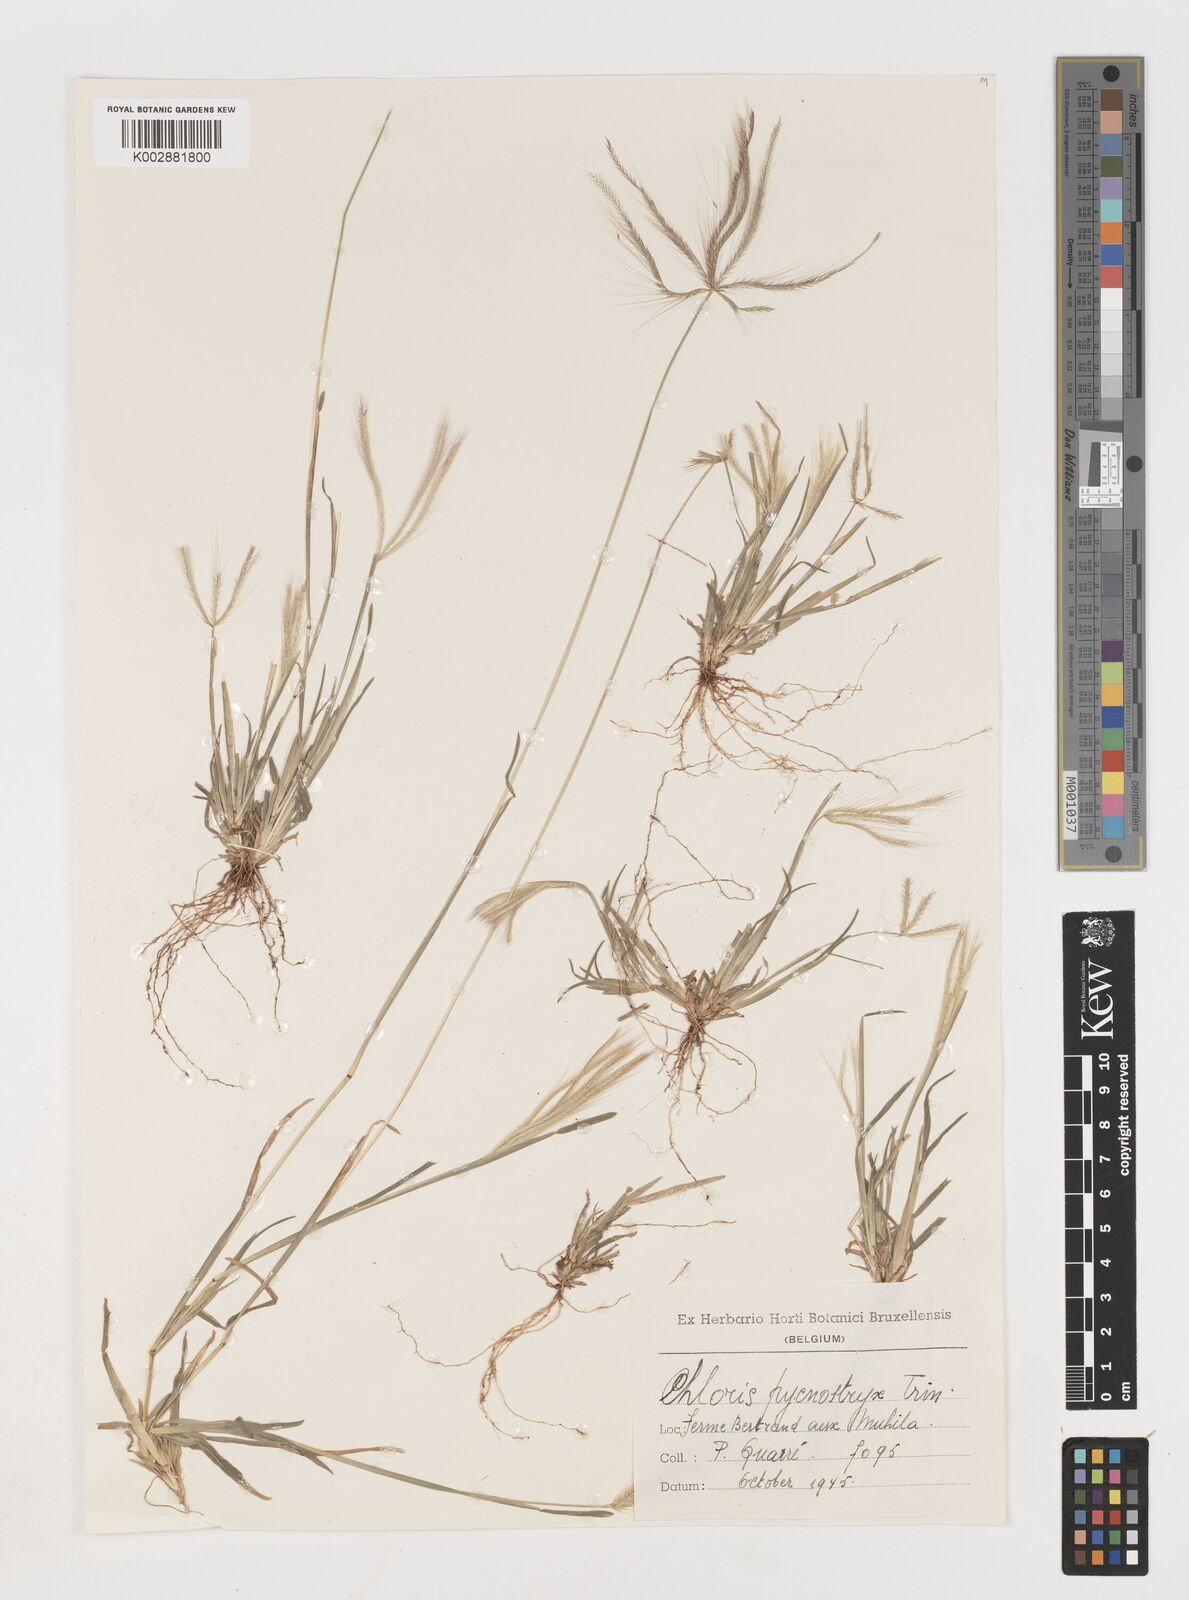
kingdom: Plantae
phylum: Tracheophyta
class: Liliopsida
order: Poales
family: Poaceae
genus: Chloris
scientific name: Chloris pycnothrix
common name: Spiderweb chloris
